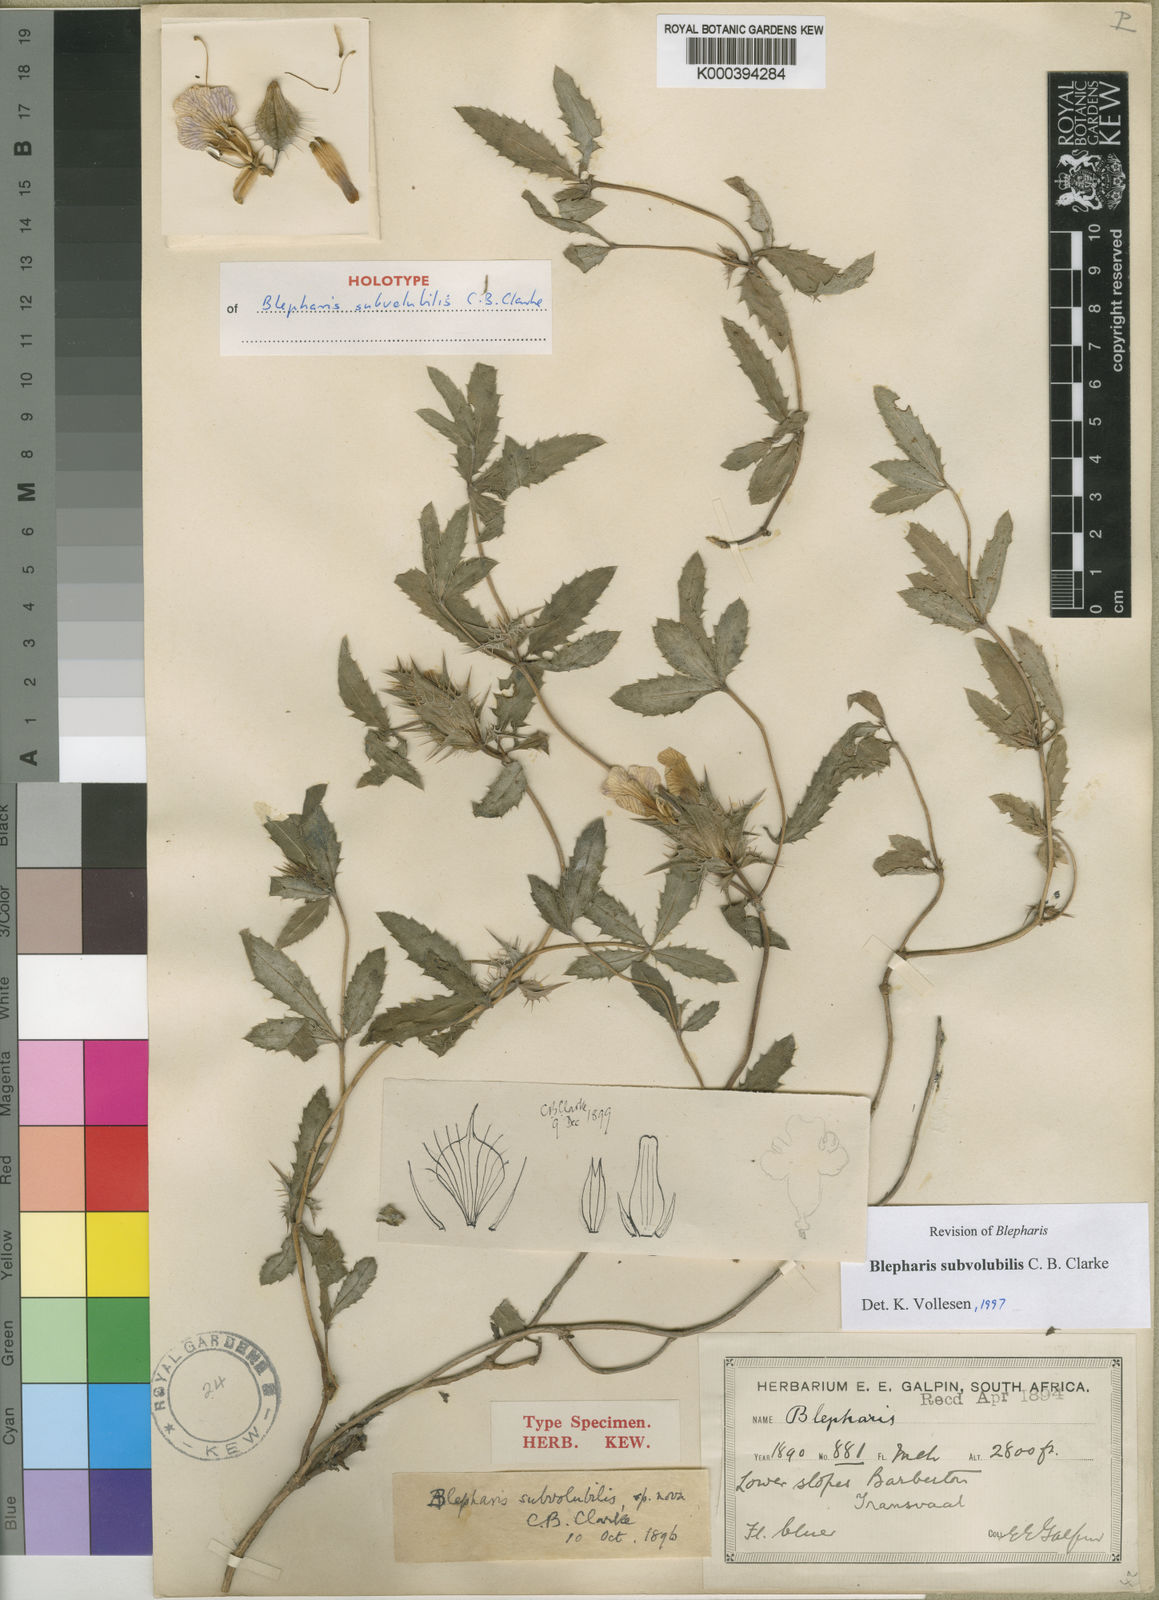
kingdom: Plantae
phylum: Tracheophyta
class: Magnoliopsida
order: Lamiales
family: Acanthaceae
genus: Blepharis
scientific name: Blepharis subvolubilis
